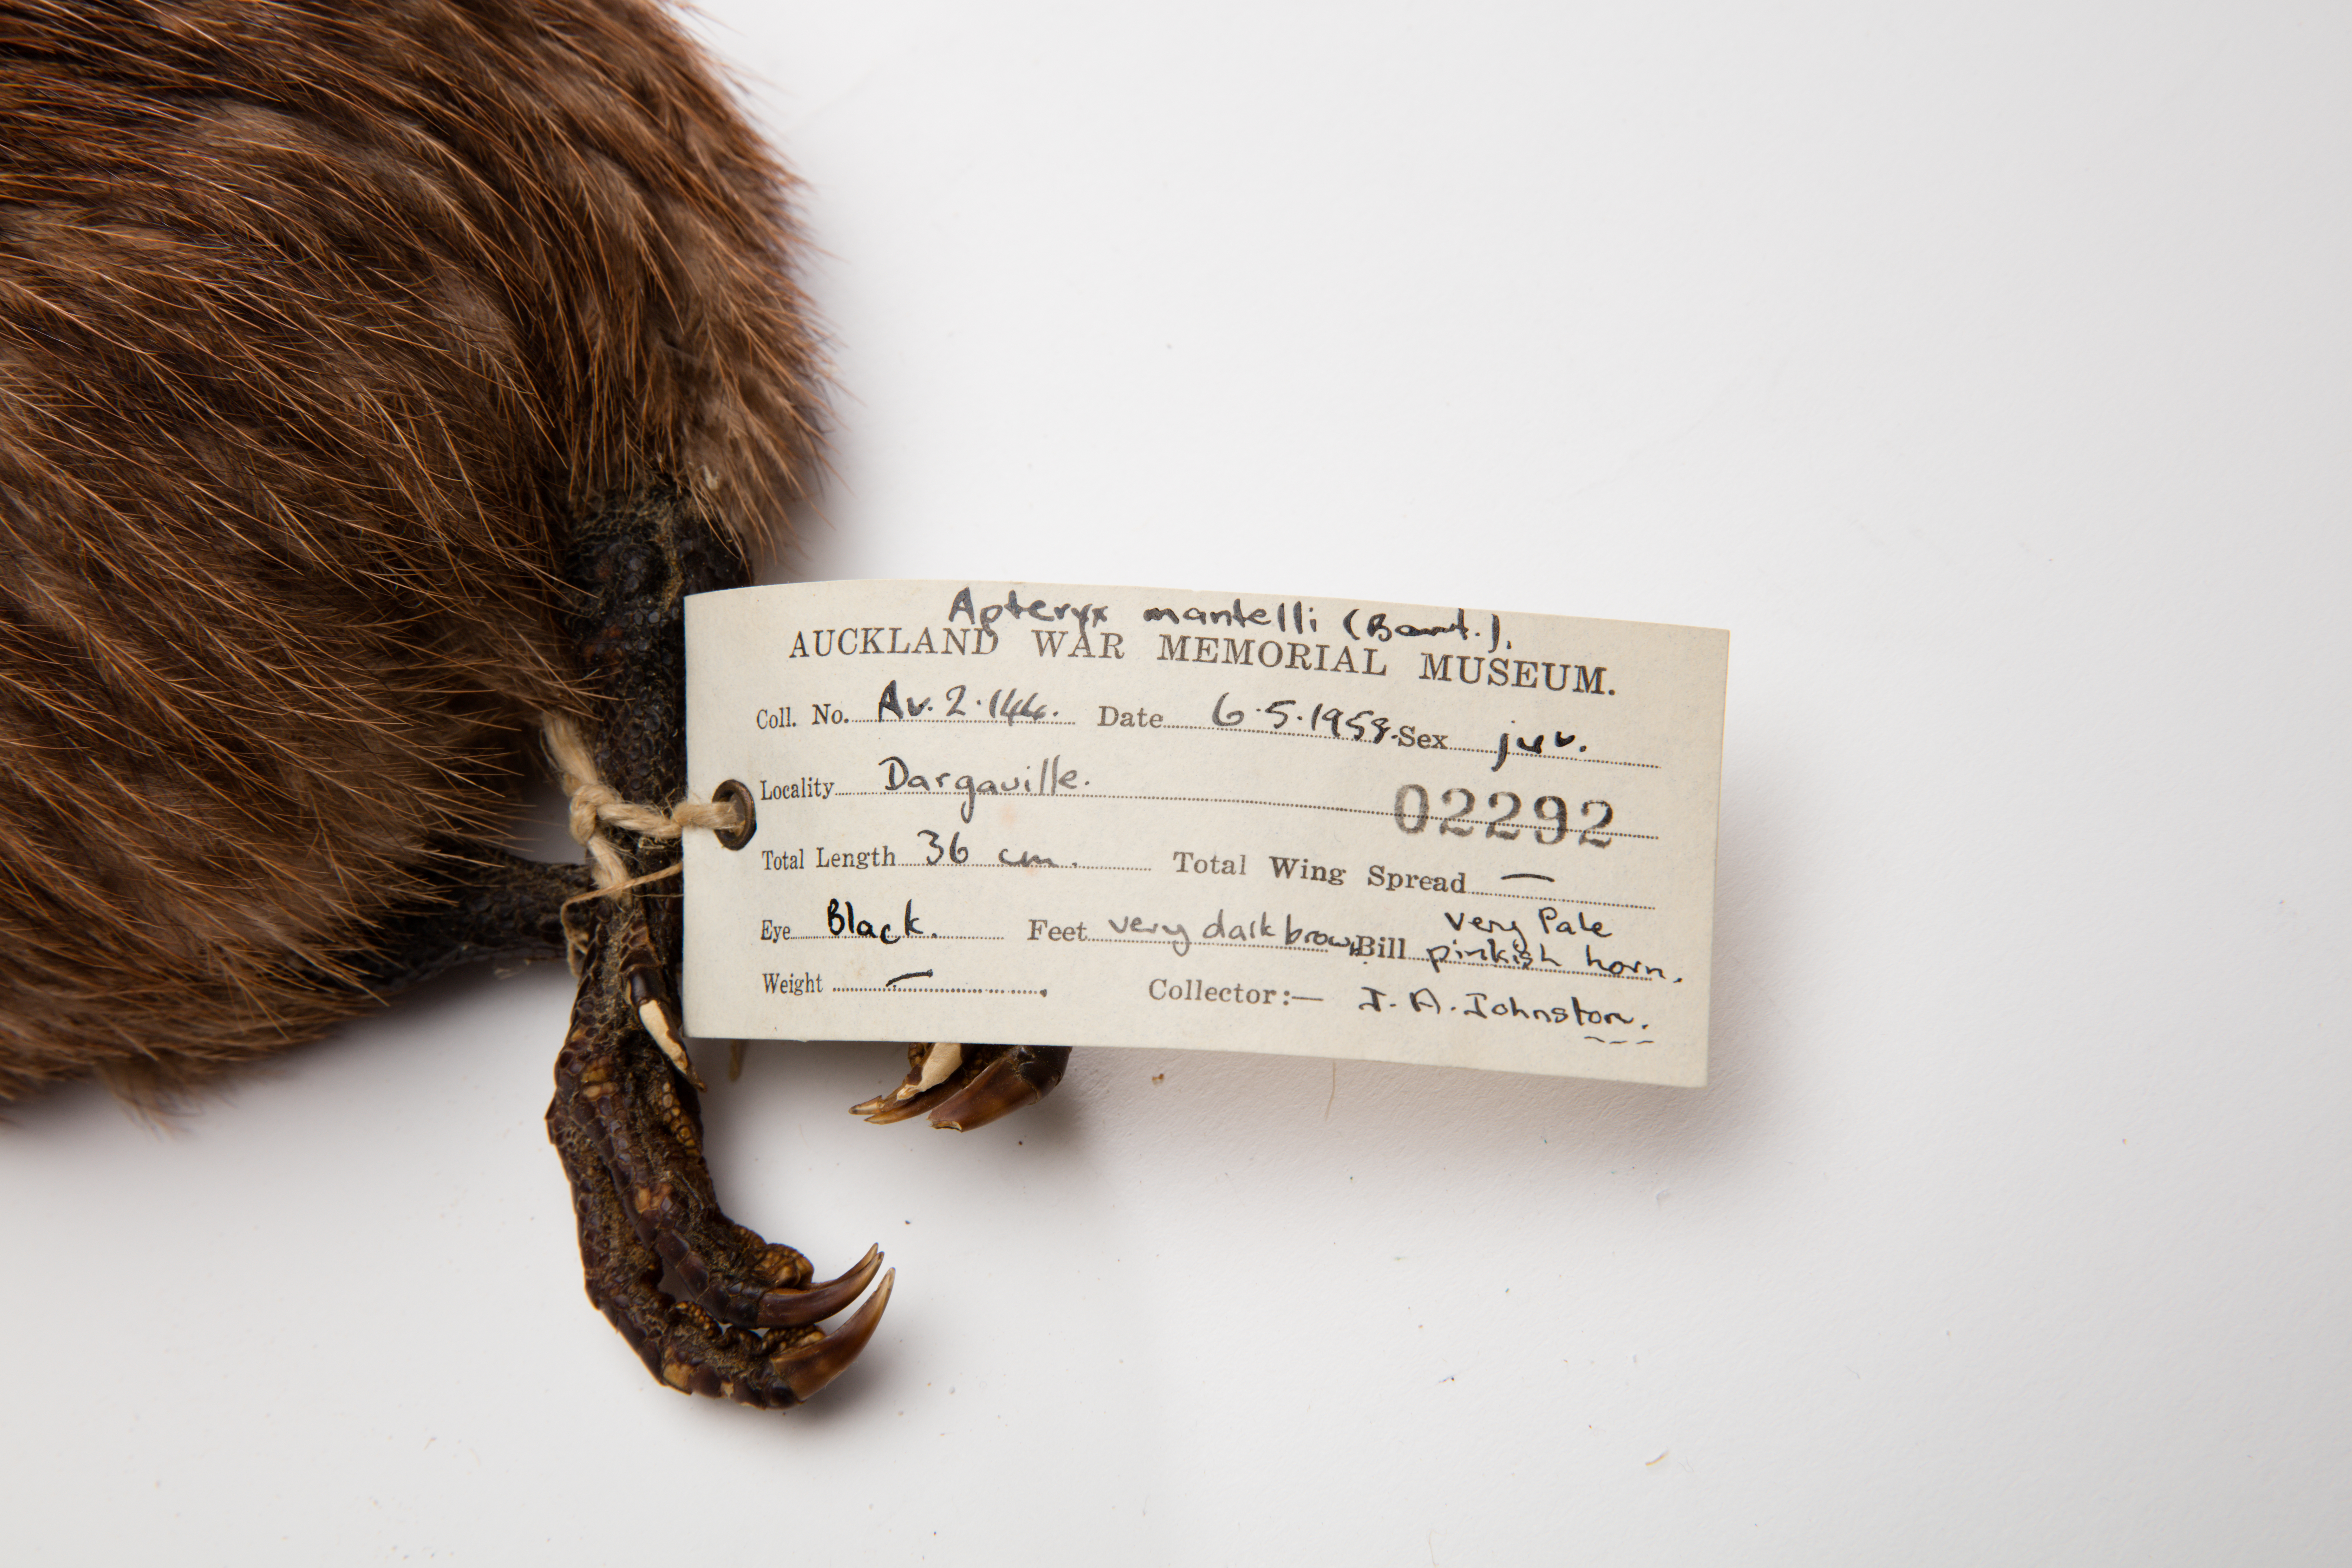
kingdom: Animalia
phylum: Chordata
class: Aves
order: Apterygiformes
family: Apterygidae
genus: Apteryx
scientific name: Apteryx mantelli
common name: North island brown kiwi
